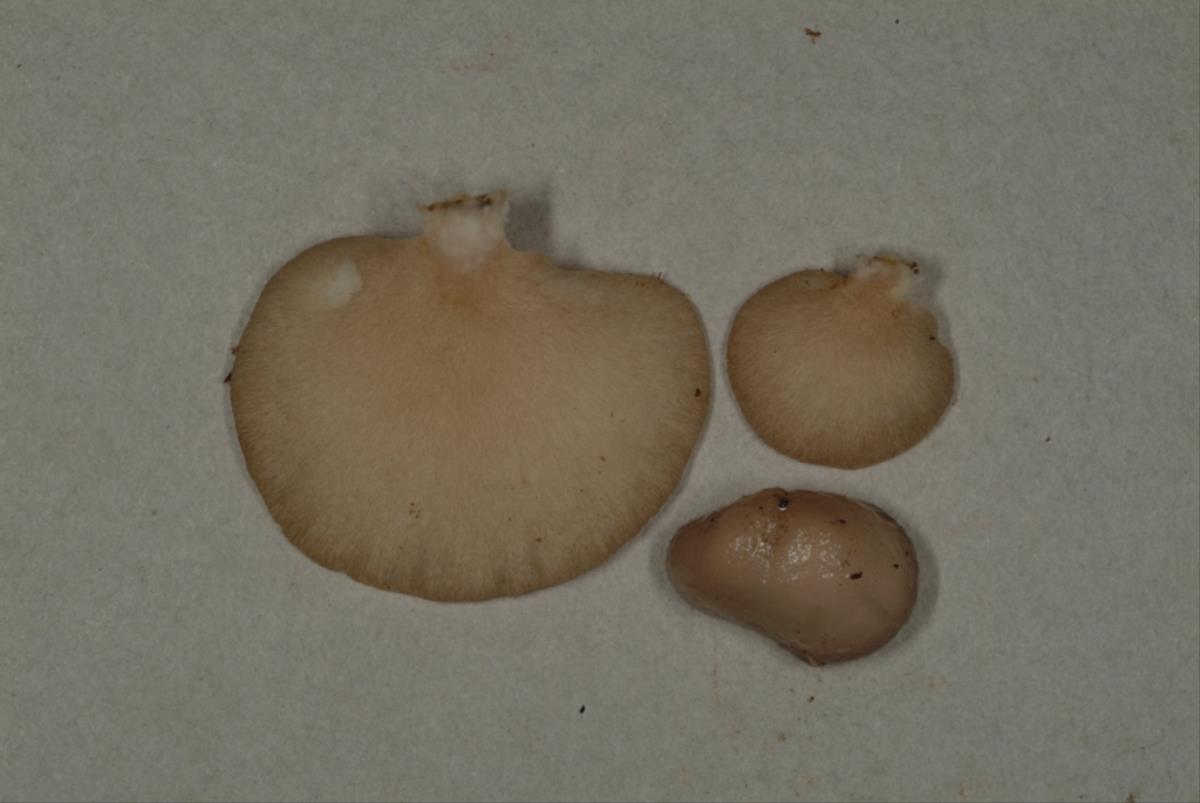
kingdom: Fungi
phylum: Basidiomycota
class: Agaricomycetes
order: Agaricales
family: Pleurotaceae
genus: Pleurotus
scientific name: Pleurotus djamor
